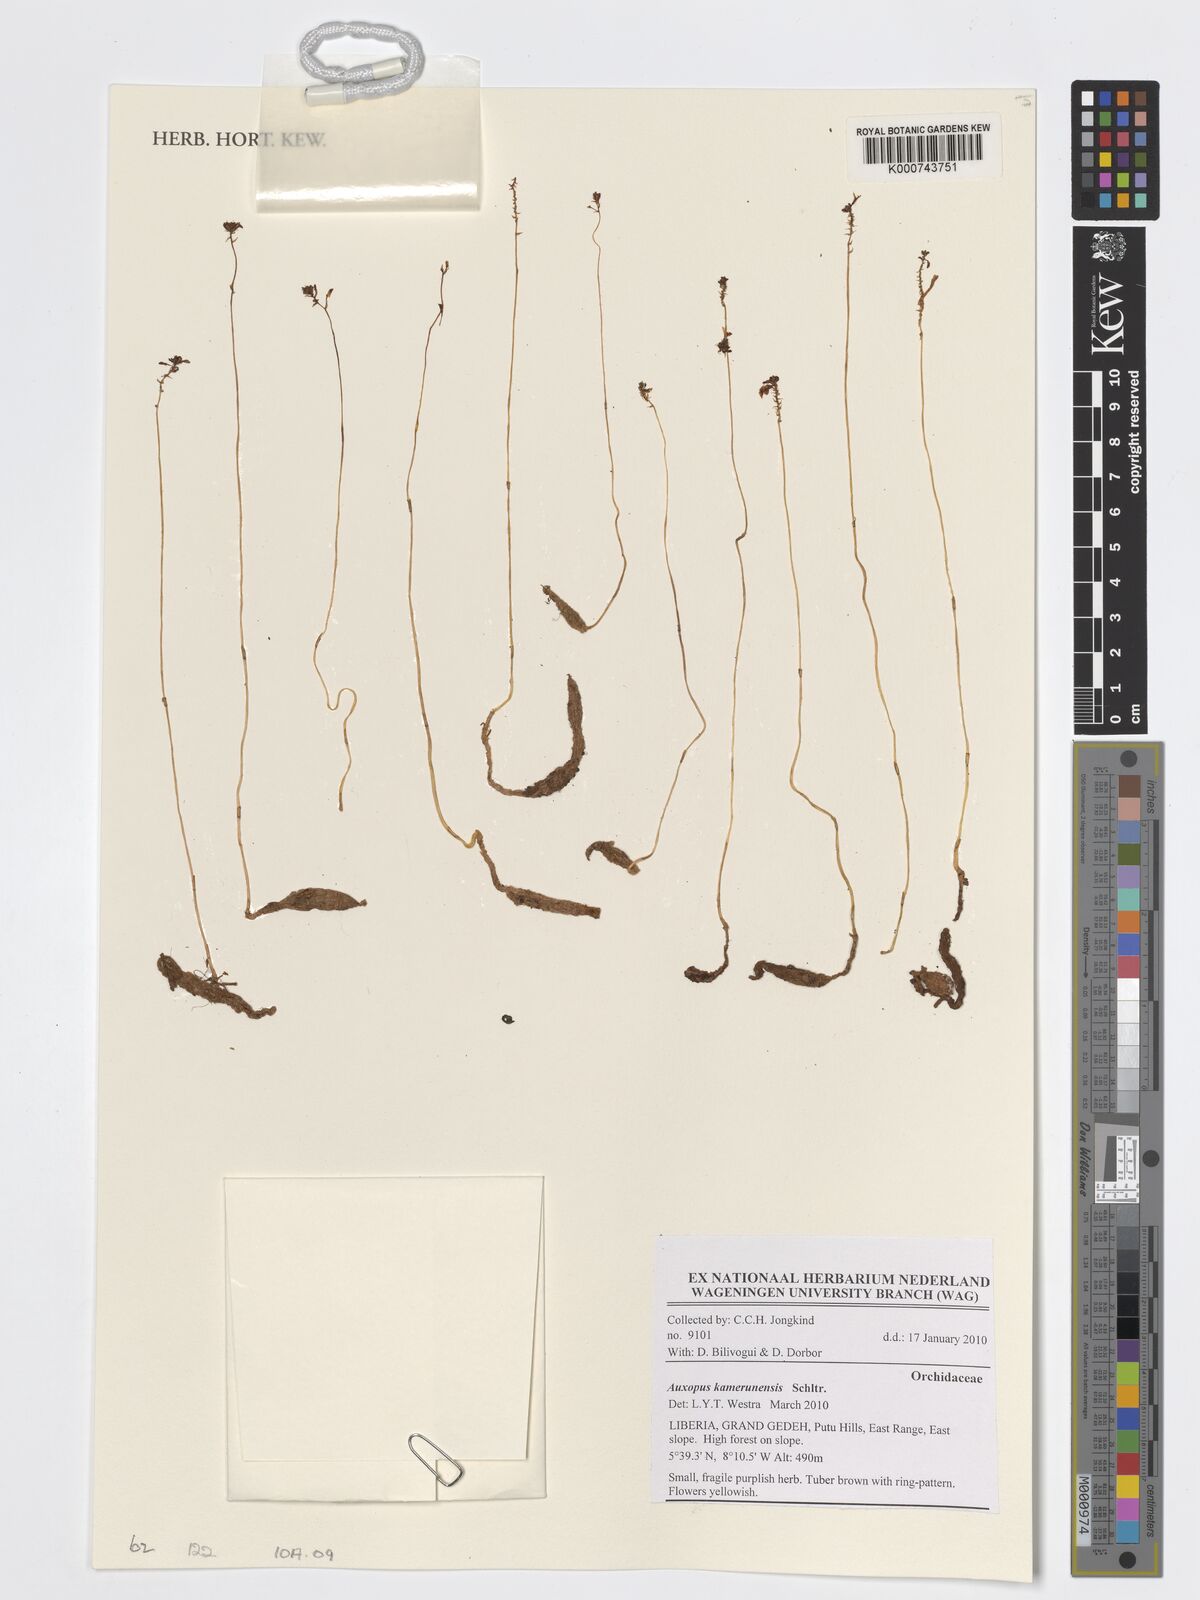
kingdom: Plantae
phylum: Tracheophyta
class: Liliopsida
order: Asparagales
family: Orchidaceae
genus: Auxopus
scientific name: Auxopus kamerunensis
